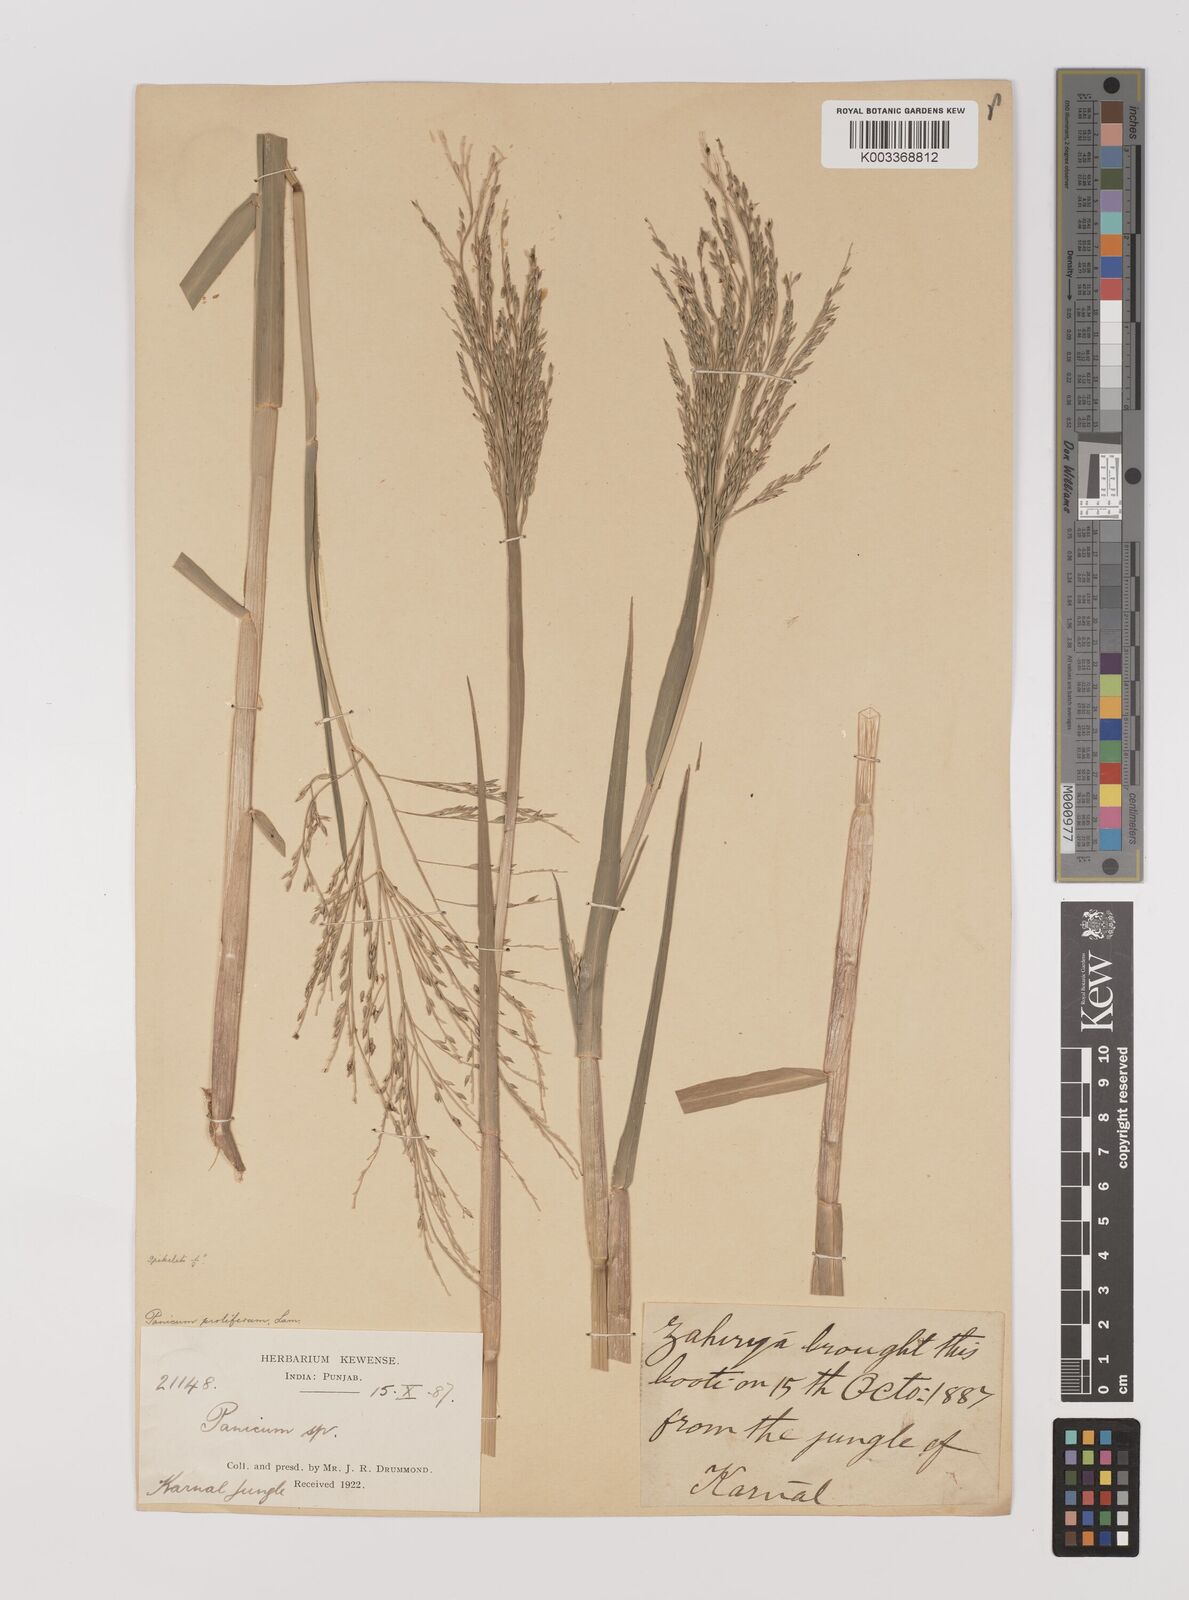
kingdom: Plantae
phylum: Tracheophyta
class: Liliopsida
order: Poales
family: Poaceae
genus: Louisiella
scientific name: Louisiella paludosa
